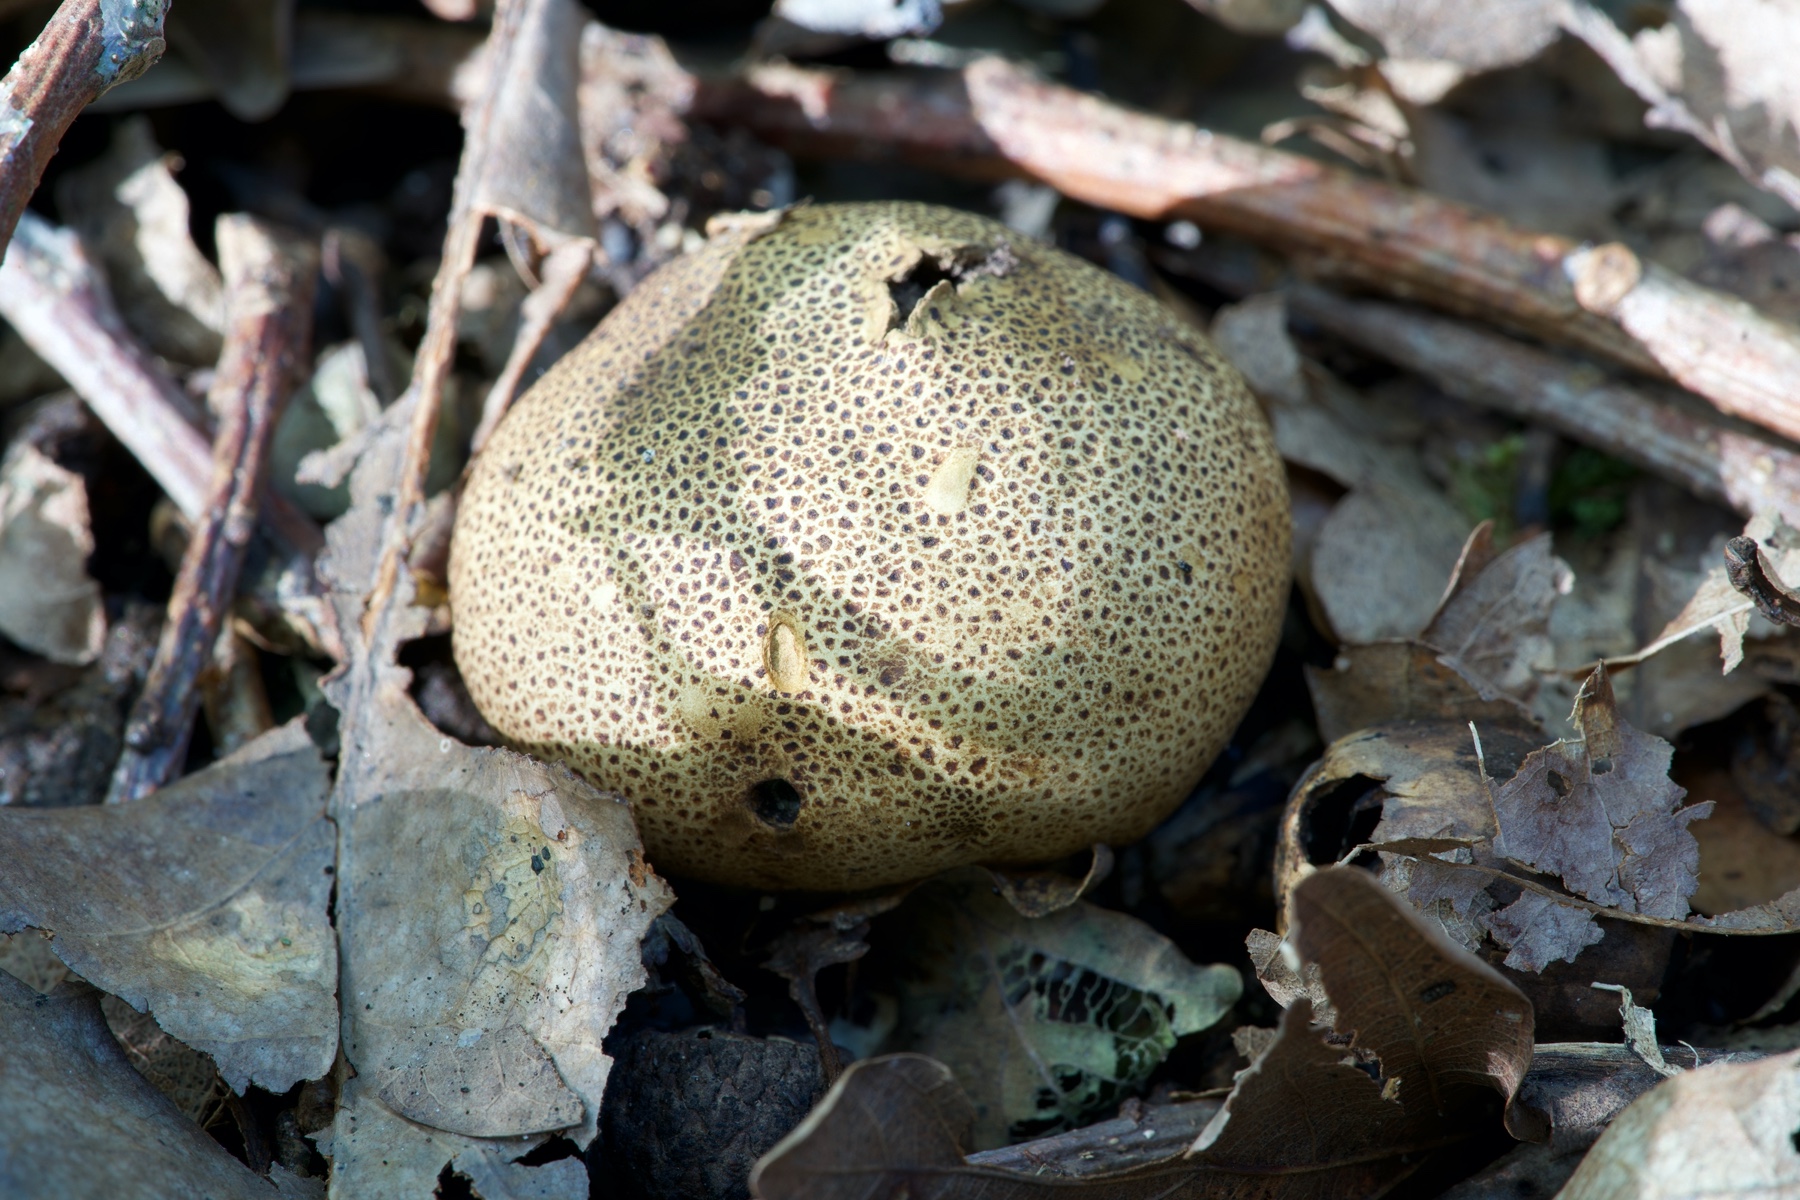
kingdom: Fungi
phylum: Basidiomycota
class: Agaricomycetes
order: Boletales
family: Sclerodermataceae
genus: Scleroderma
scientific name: Scleroderma areolatum
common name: plettet bruskbold
